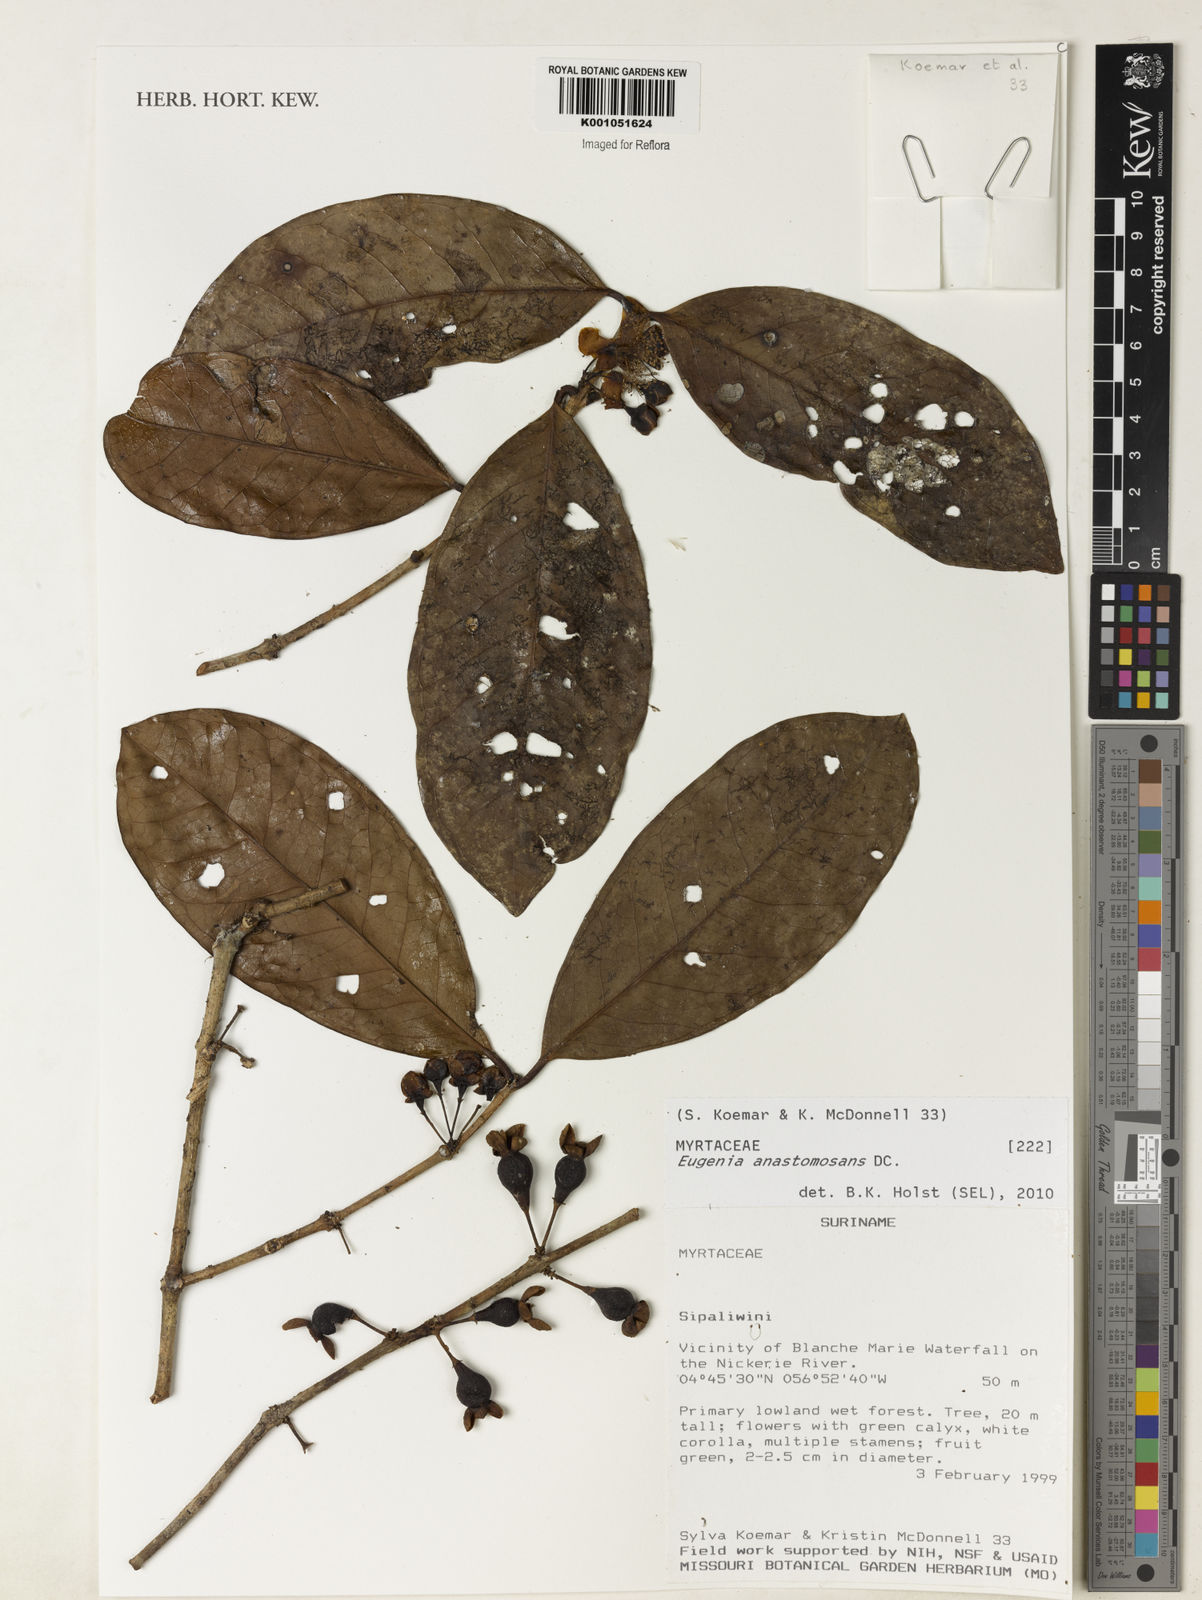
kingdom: Plantae
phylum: Tracheophyta
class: Magnoliopsida
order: Myrtales
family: Myrtaceae
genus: Eugenia
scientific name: Eugenia anastomosans
